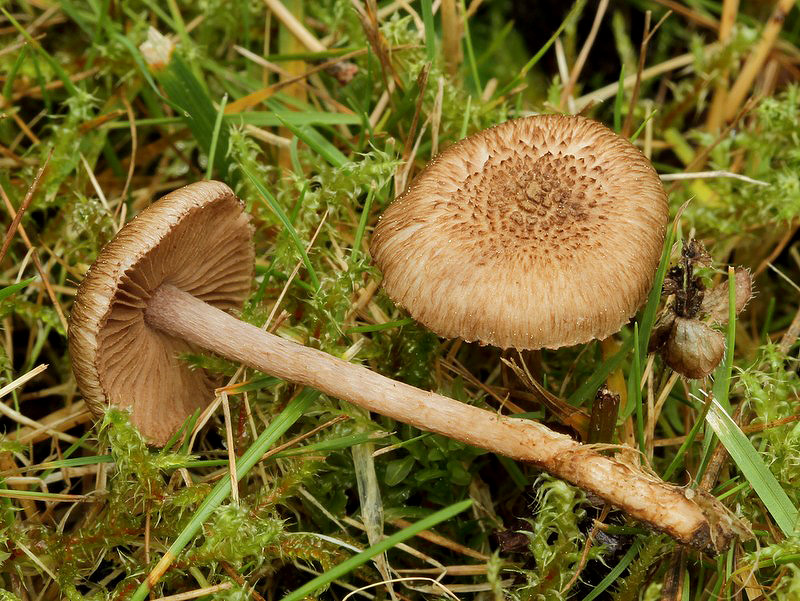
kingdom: Fungi
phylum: Basidiomycota
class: Agaricomycetes
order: Agaricales
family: Inocybaceae
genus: Inocybe
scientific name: Inocybe lanuginosa
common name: uldskællet trævlhat
